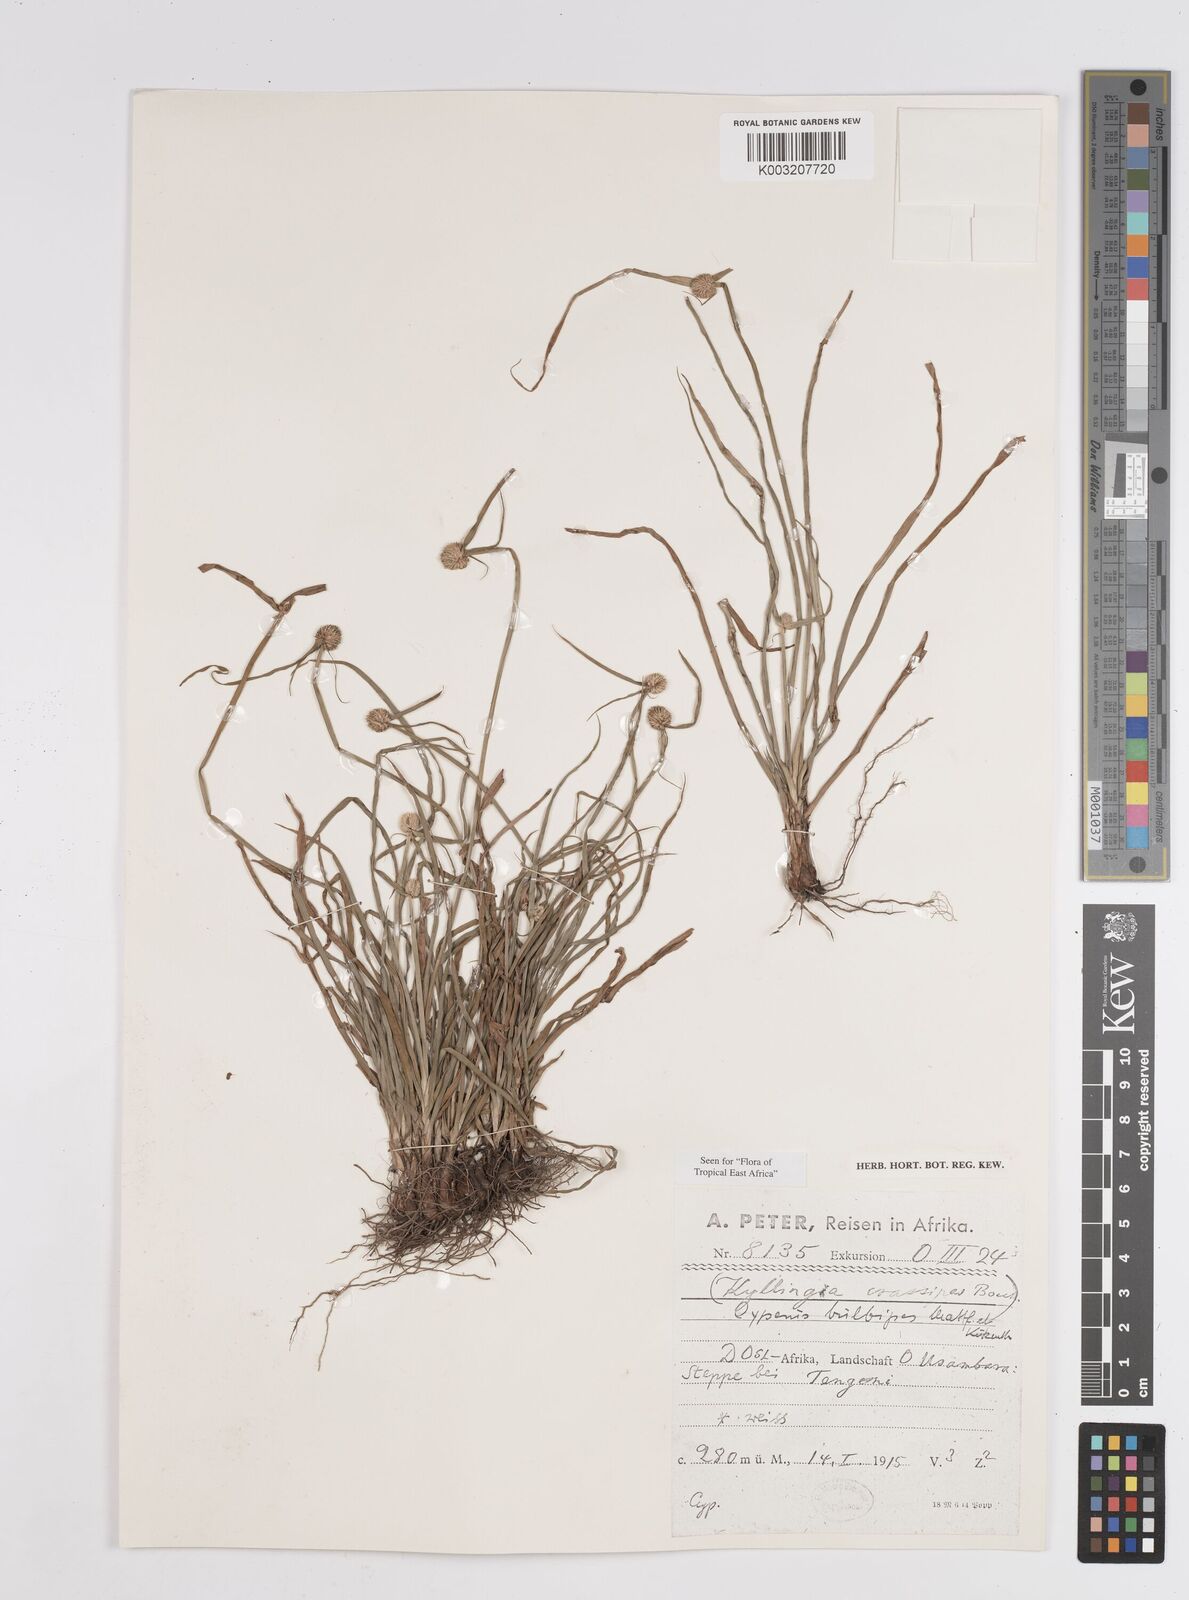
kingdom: Plantae
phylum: Tracheophyta
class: Liliopsida
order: Poales
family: Cyperaceae
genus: Cyperus
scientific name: Cyperus
